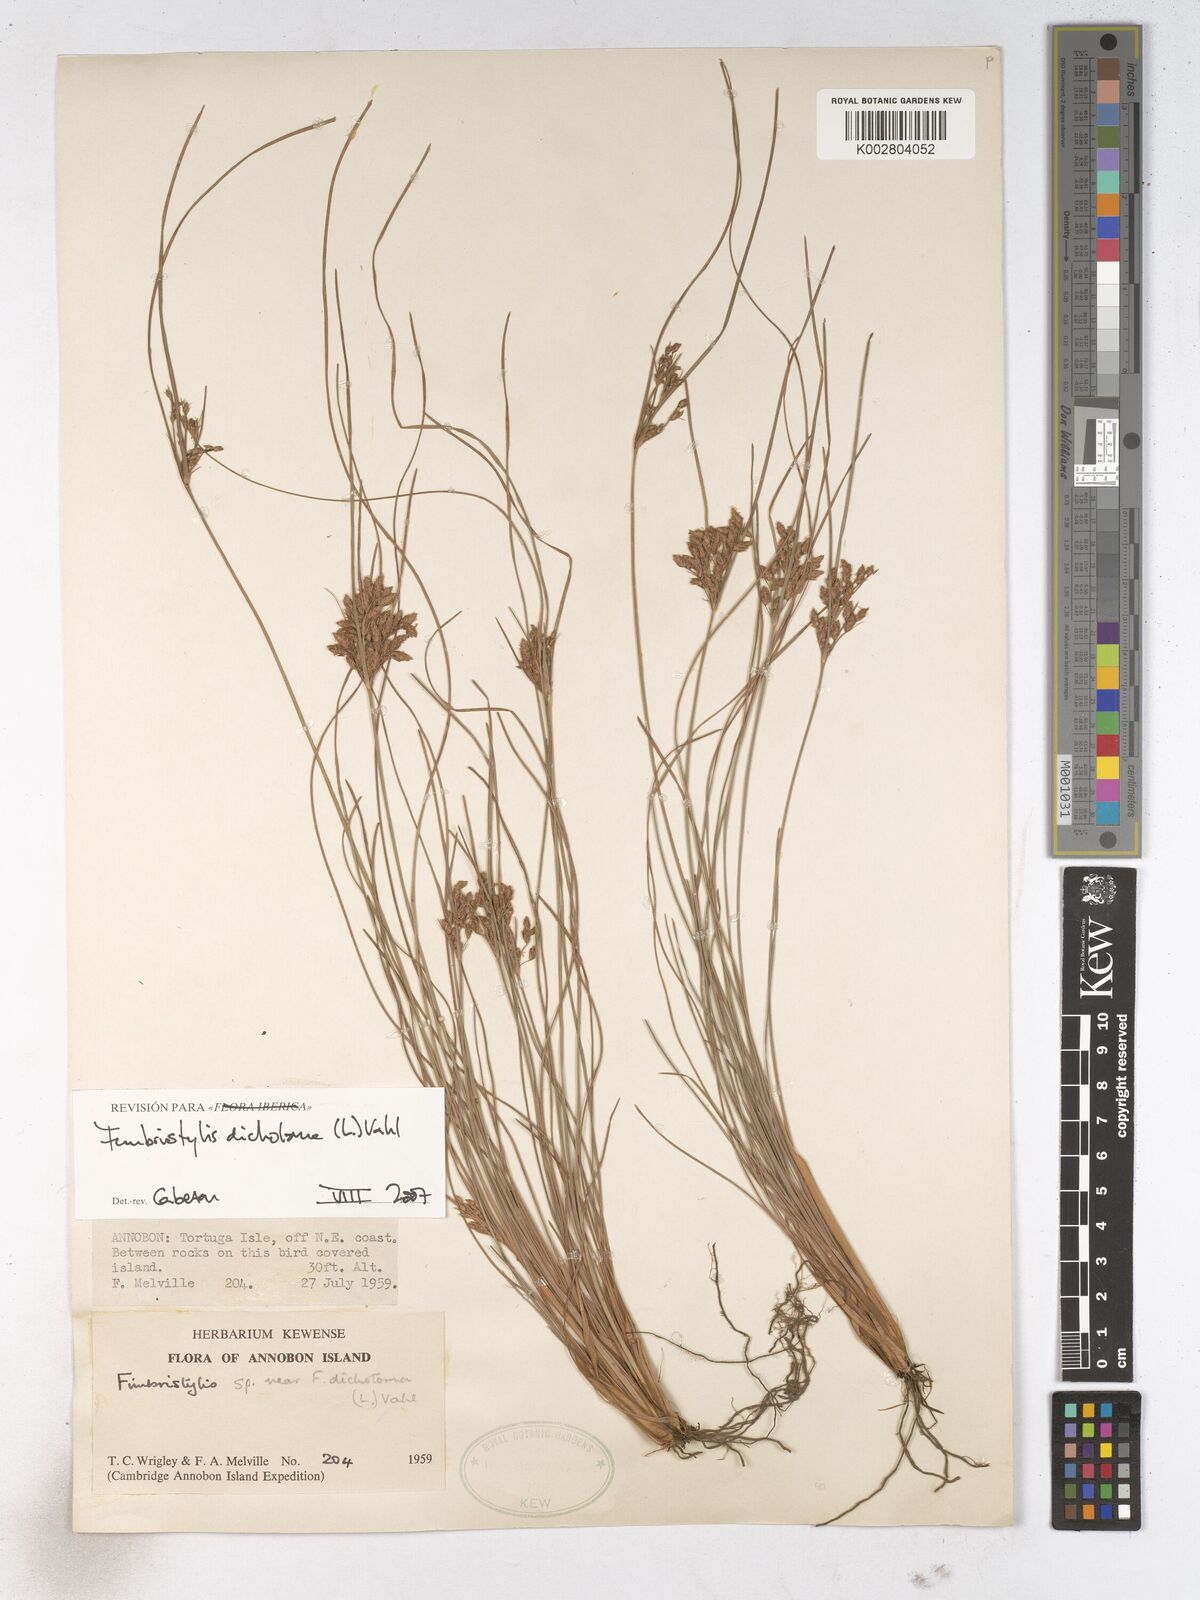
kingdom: Plantae
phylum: Tracheophyta
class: Liliopsida
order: Poales
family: Cyperaceae
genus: Fimbristylis
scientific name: Fimbristylis dichotoma
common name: Forked fimbry
